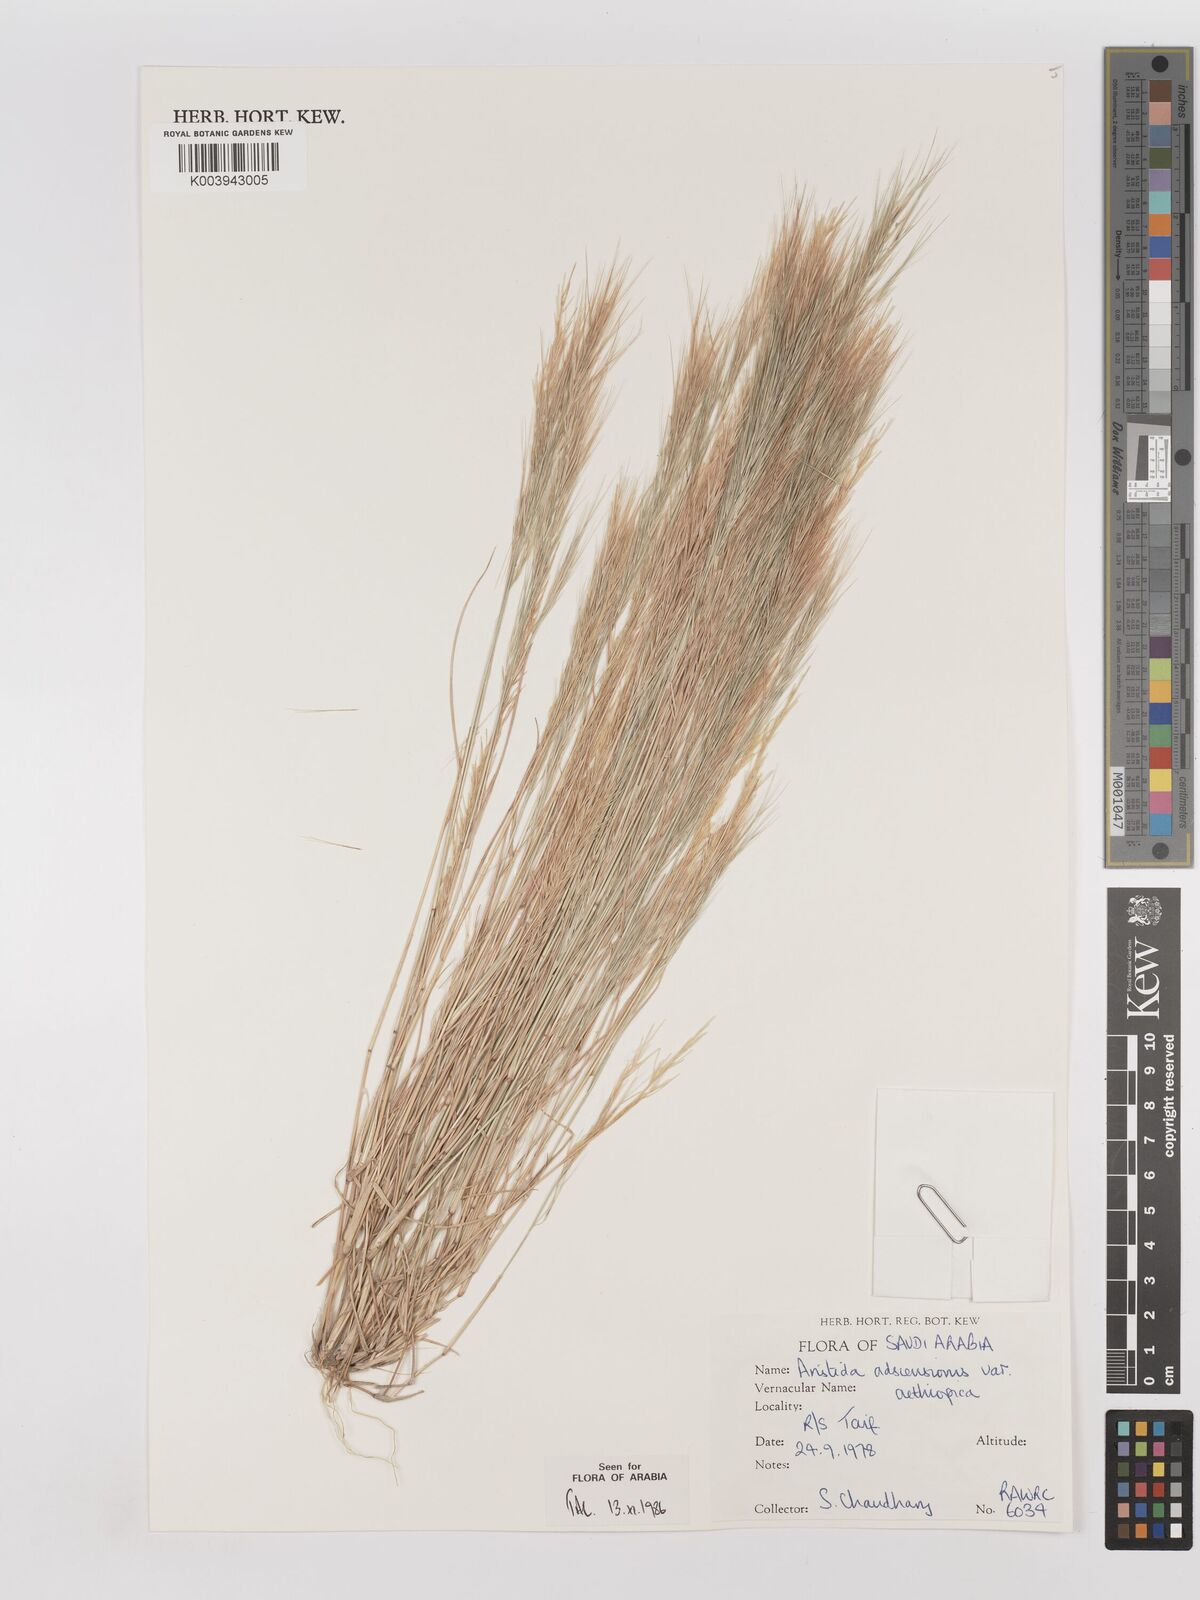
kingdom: Plantae
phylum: Tracheophyta
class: Liliopsida
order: Poales
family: Poaceae
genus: Aristida
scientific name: Aristida adscensionis
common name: Sixweeks threeawn
